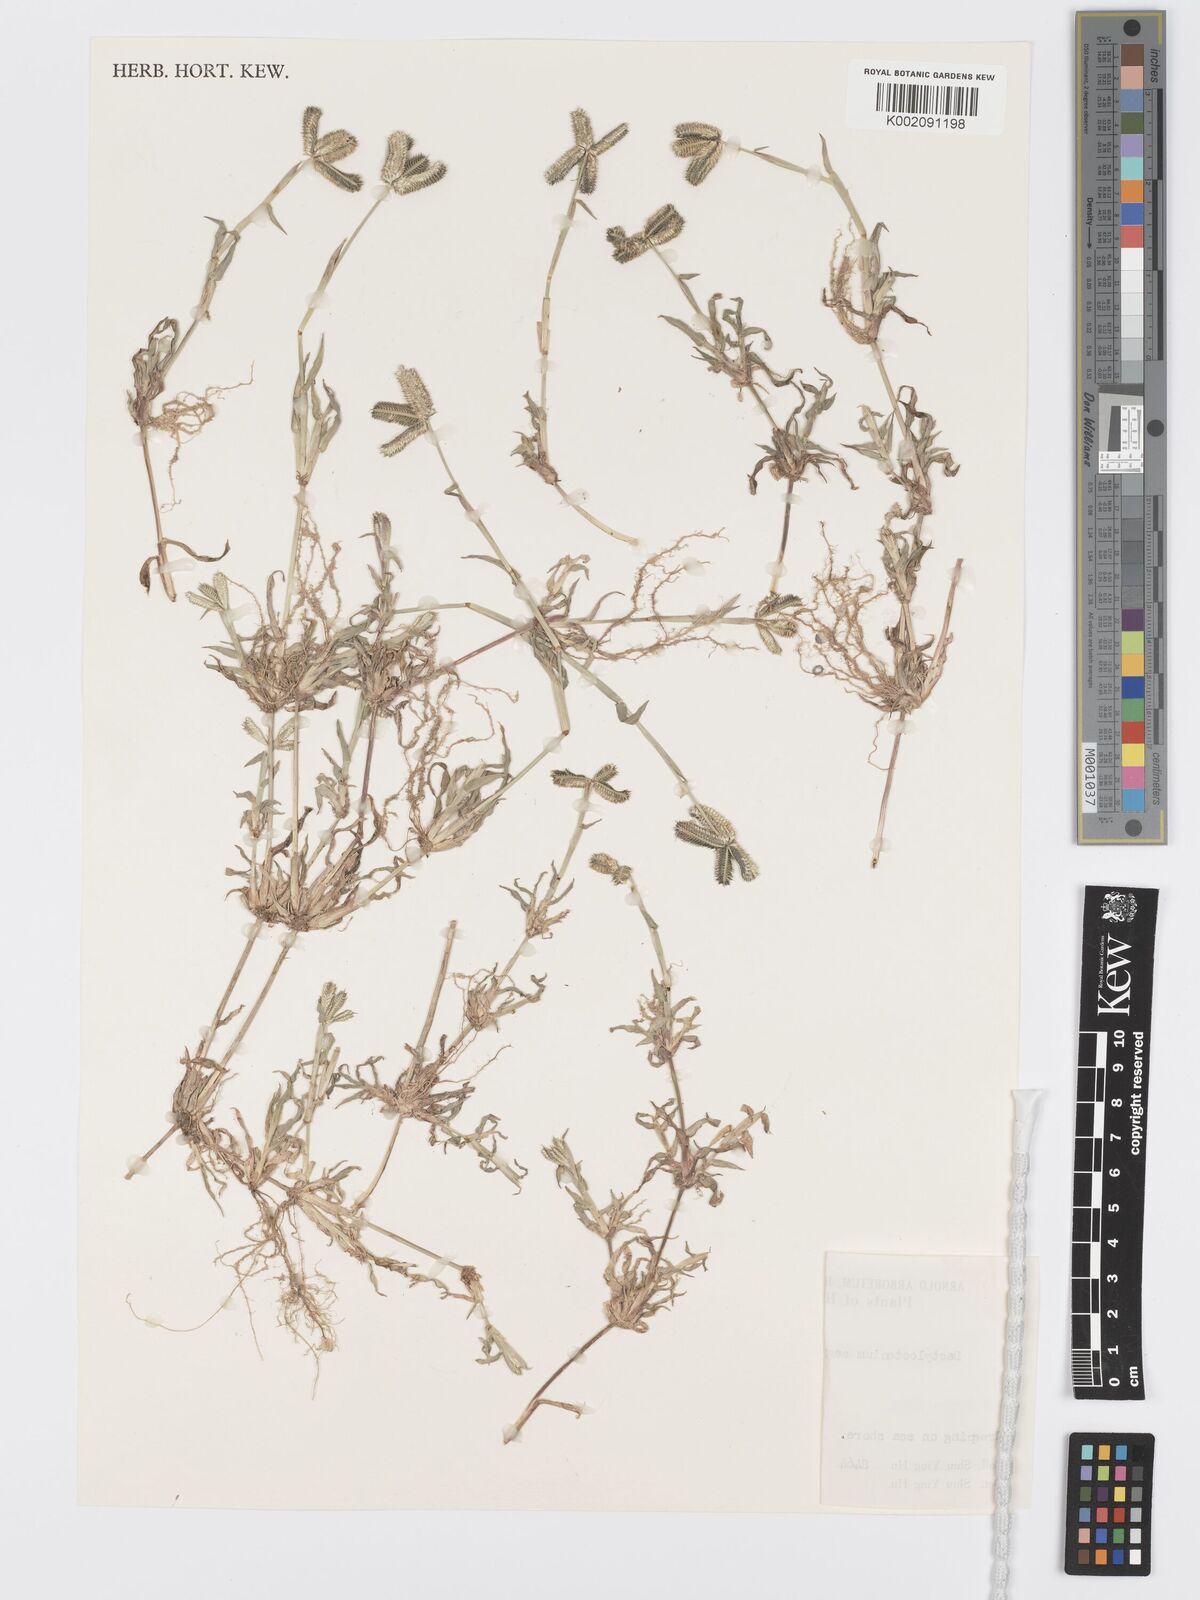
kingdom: Plantae
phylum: Tracheophyta
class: Liliopsida
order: Poales
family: Poaceae
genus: Dactyloctenium
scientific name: Dactyloctenium aegyptium
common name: Egyptian grass
